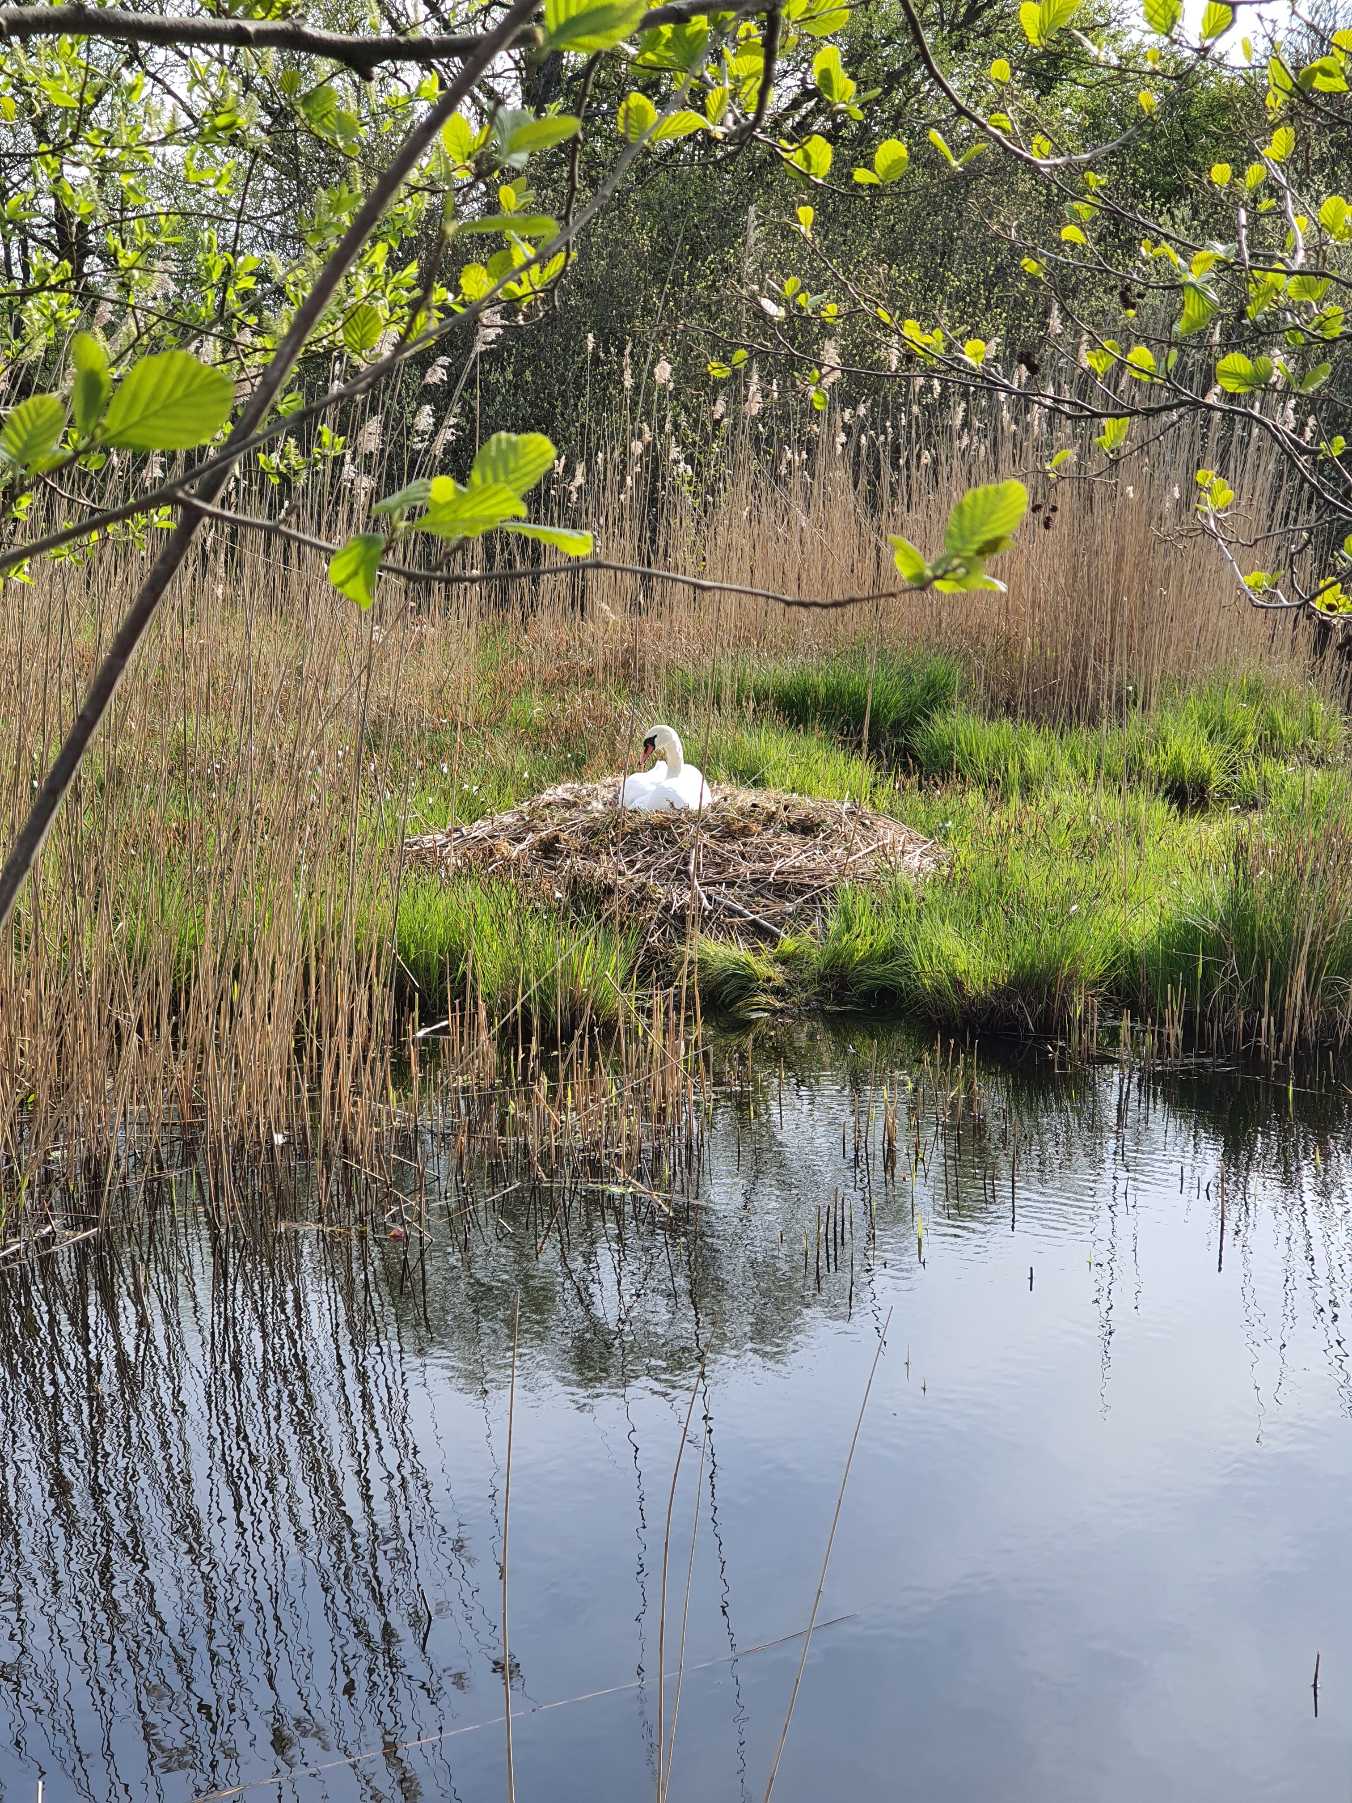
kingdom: Animalia
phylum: Chordata
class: Aves
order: Anseriformes
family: Anatidae
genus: Cygnus
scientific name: Cygnus olor
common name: Knopsvane
